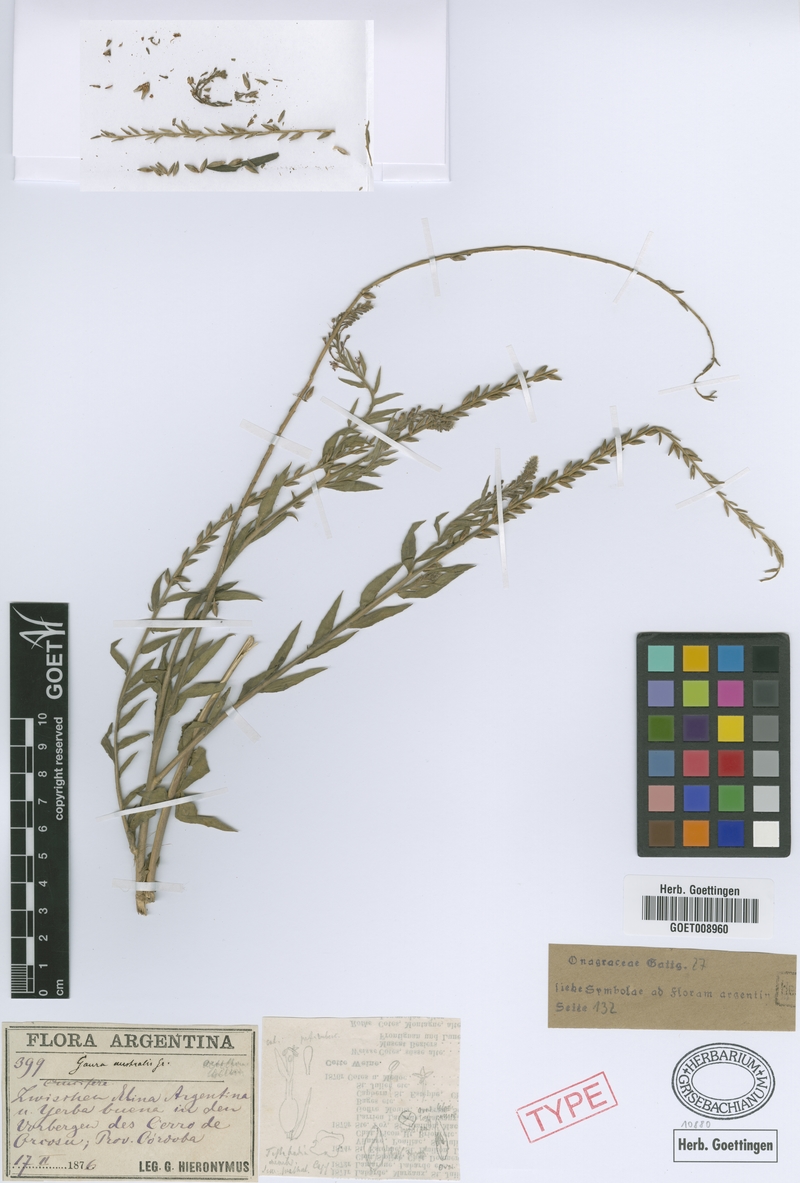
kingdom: Plantae
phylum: Tracheophyta
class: Magnoliopsida
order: Myrtales
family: Onagraceae
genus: Oenothera
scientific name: Oenothera curtiflora
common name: Velvetweed
